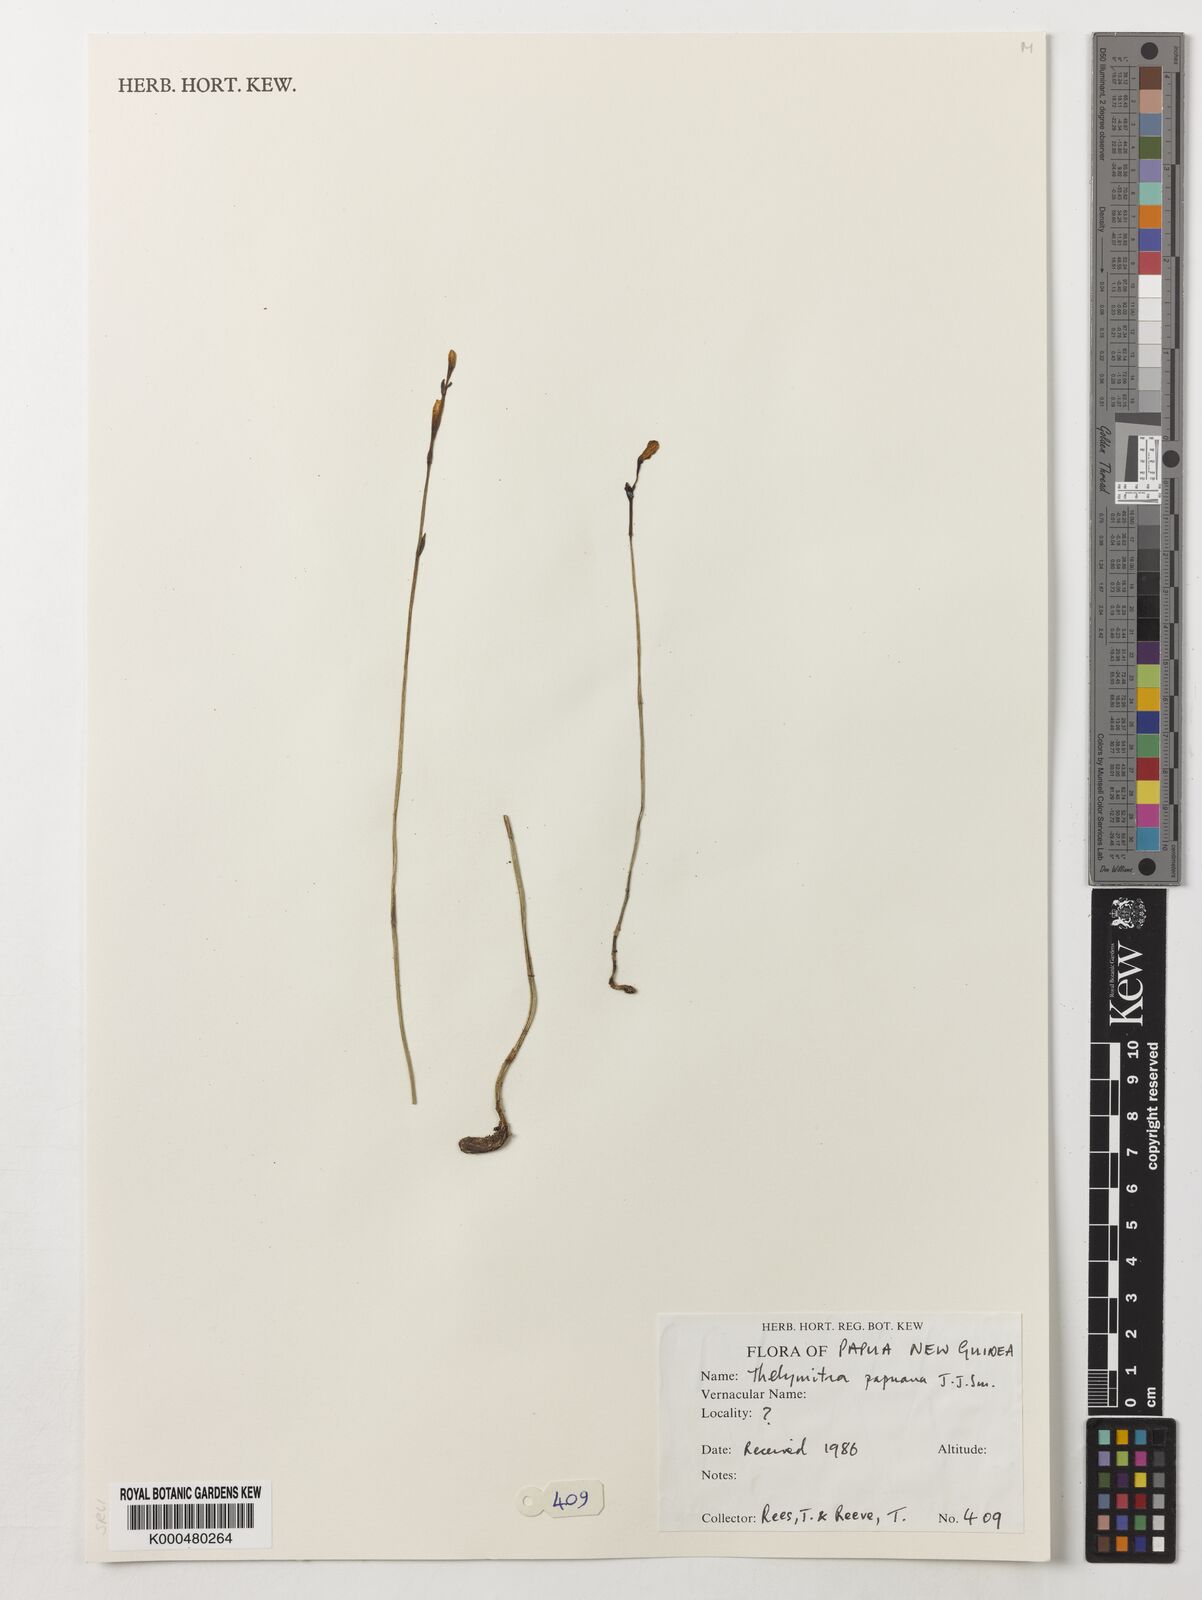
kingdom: Plantae
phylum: Tracheophyta
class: Liliopsida
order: Asparagales
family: Orchidaceae
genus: Thelymitra
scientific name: Thelymitra papuana
